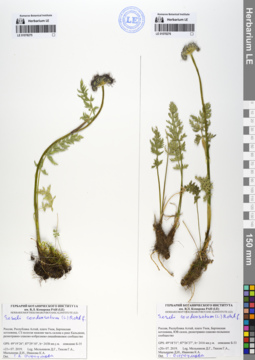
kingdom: Plantae
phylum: Tracheophyta
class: Magnoliopsida
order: Apiales
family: Apiaceae
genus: Seseli
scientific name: Seseli condensatum
